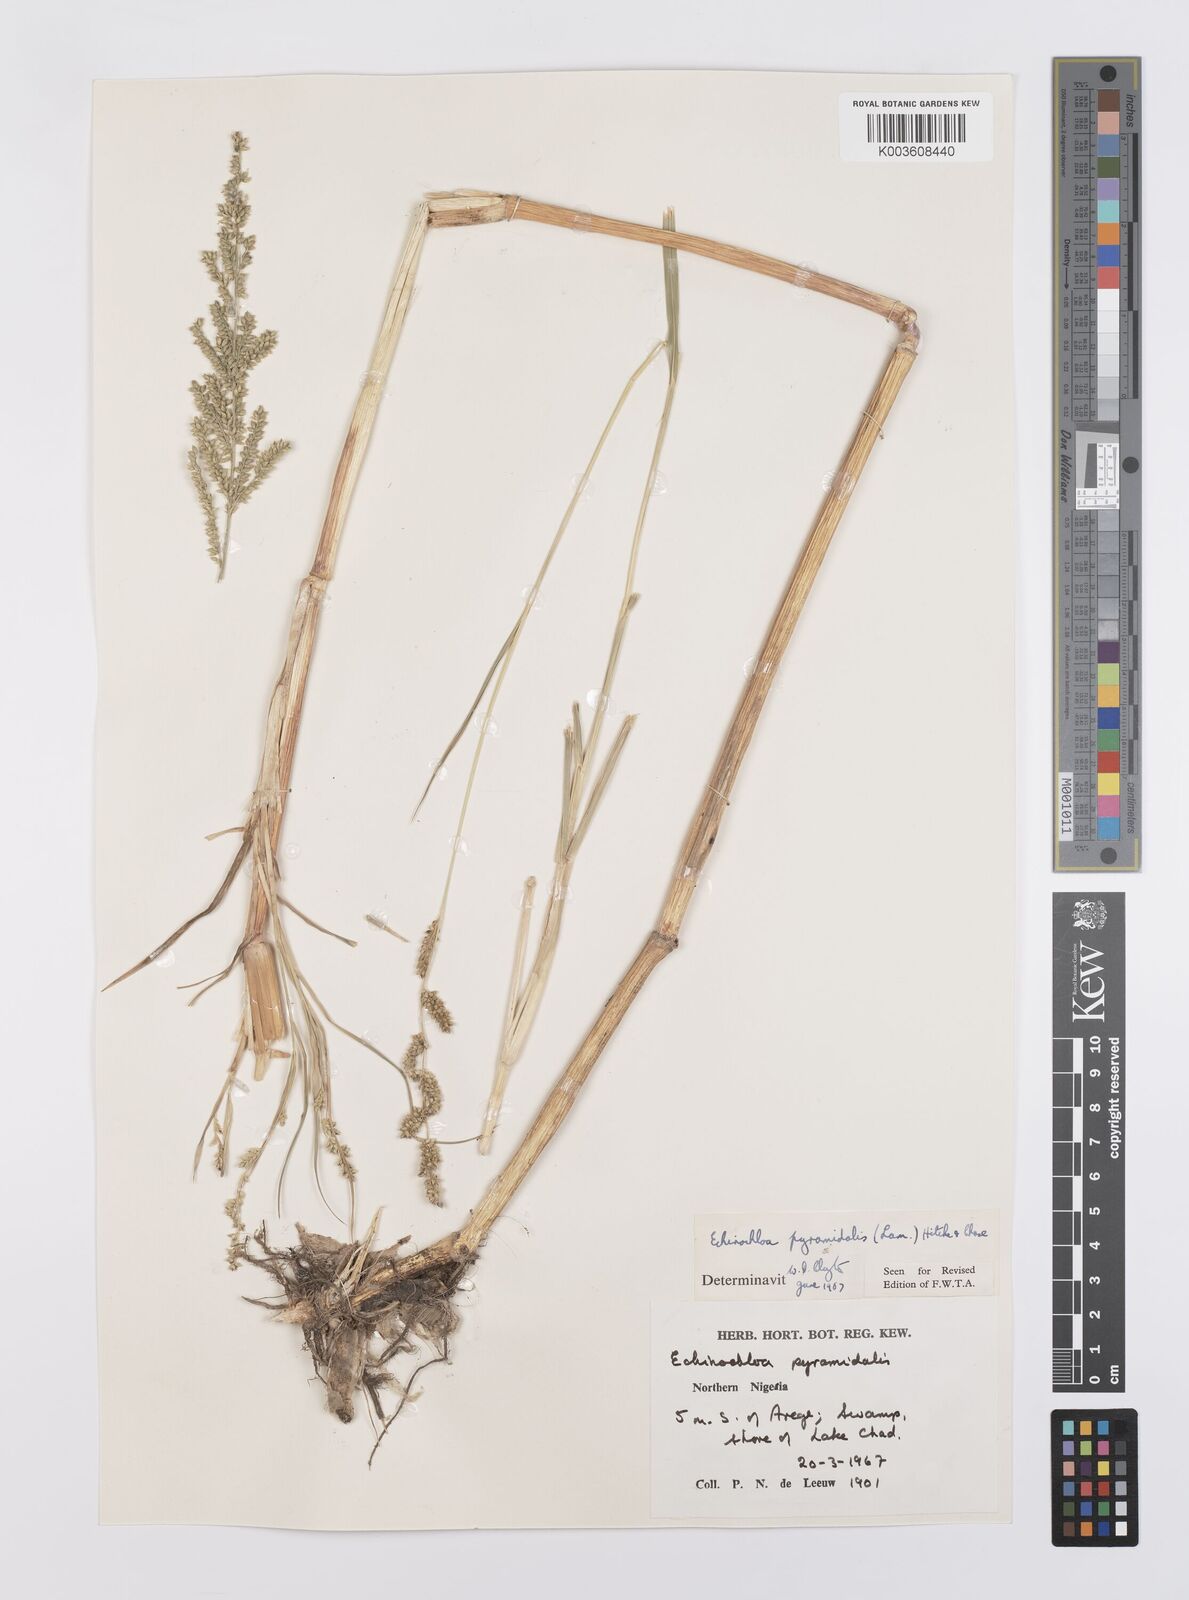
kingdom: Plantae
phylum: Tracheophyta
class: Liliopsida
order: Poales
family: Poaceae
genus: Echinochloa
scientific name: Echinochloa pyramidalis
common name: Antelope grass
